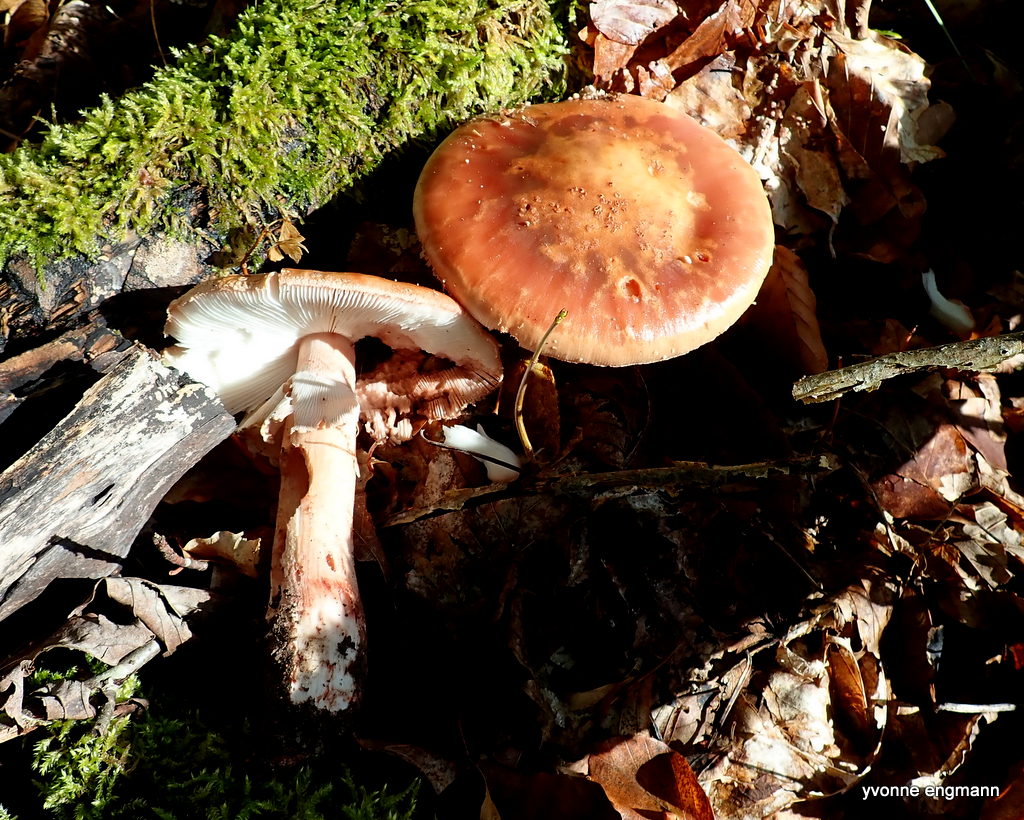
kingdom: Fungi
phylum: Basidiomycota
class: Agaricomycetes
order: Agaricales
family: Amanitaceae
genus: Amanita
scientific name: Amanita rubescens
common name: rødmende fluesvamp
